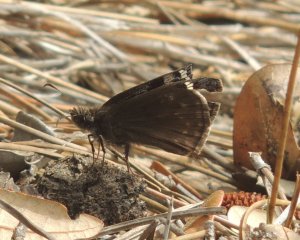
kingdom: Animalia
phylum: Arthropoda
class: Insecta
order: Lepidoptera
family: Hesperiidae
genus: Gesta
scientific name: Gesta
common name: Juvenal's Duskywing
